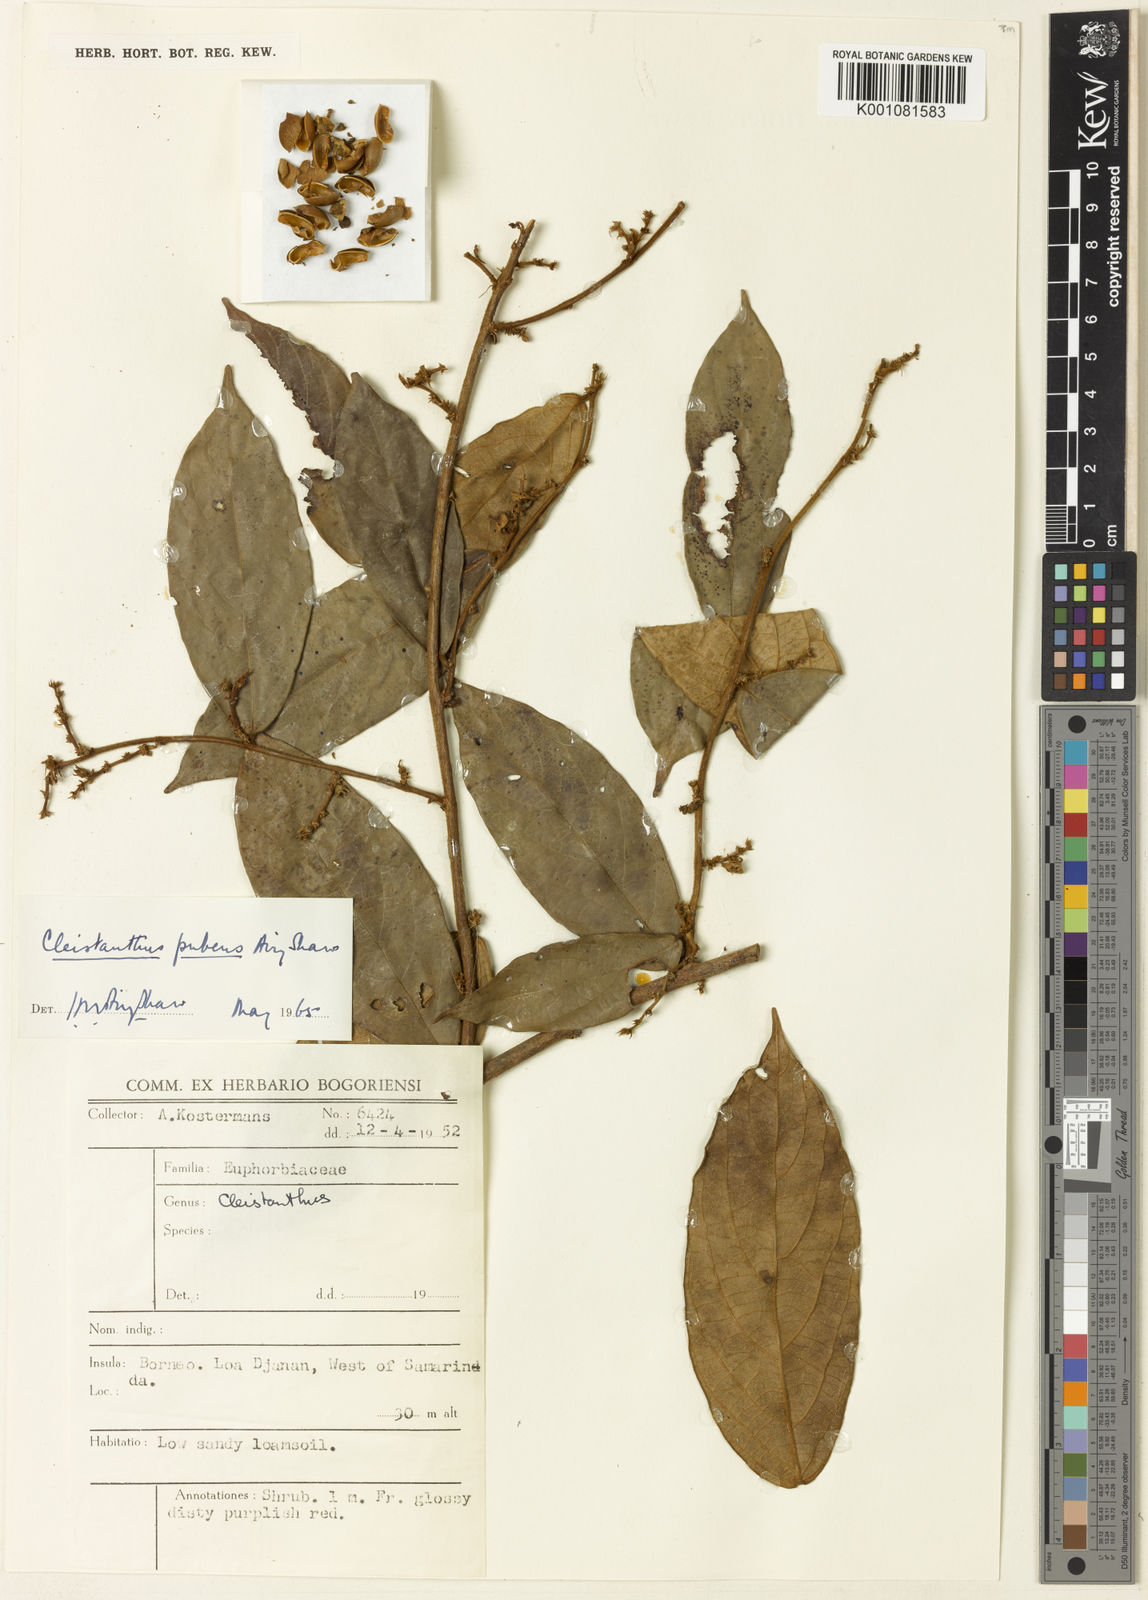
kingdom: Plantae
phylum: Tracheophyta
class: Magnoliopsida
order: Malpighiales
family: Phyllanthaceae
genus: Cleistanthus
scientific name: Cleistanthus pubens
